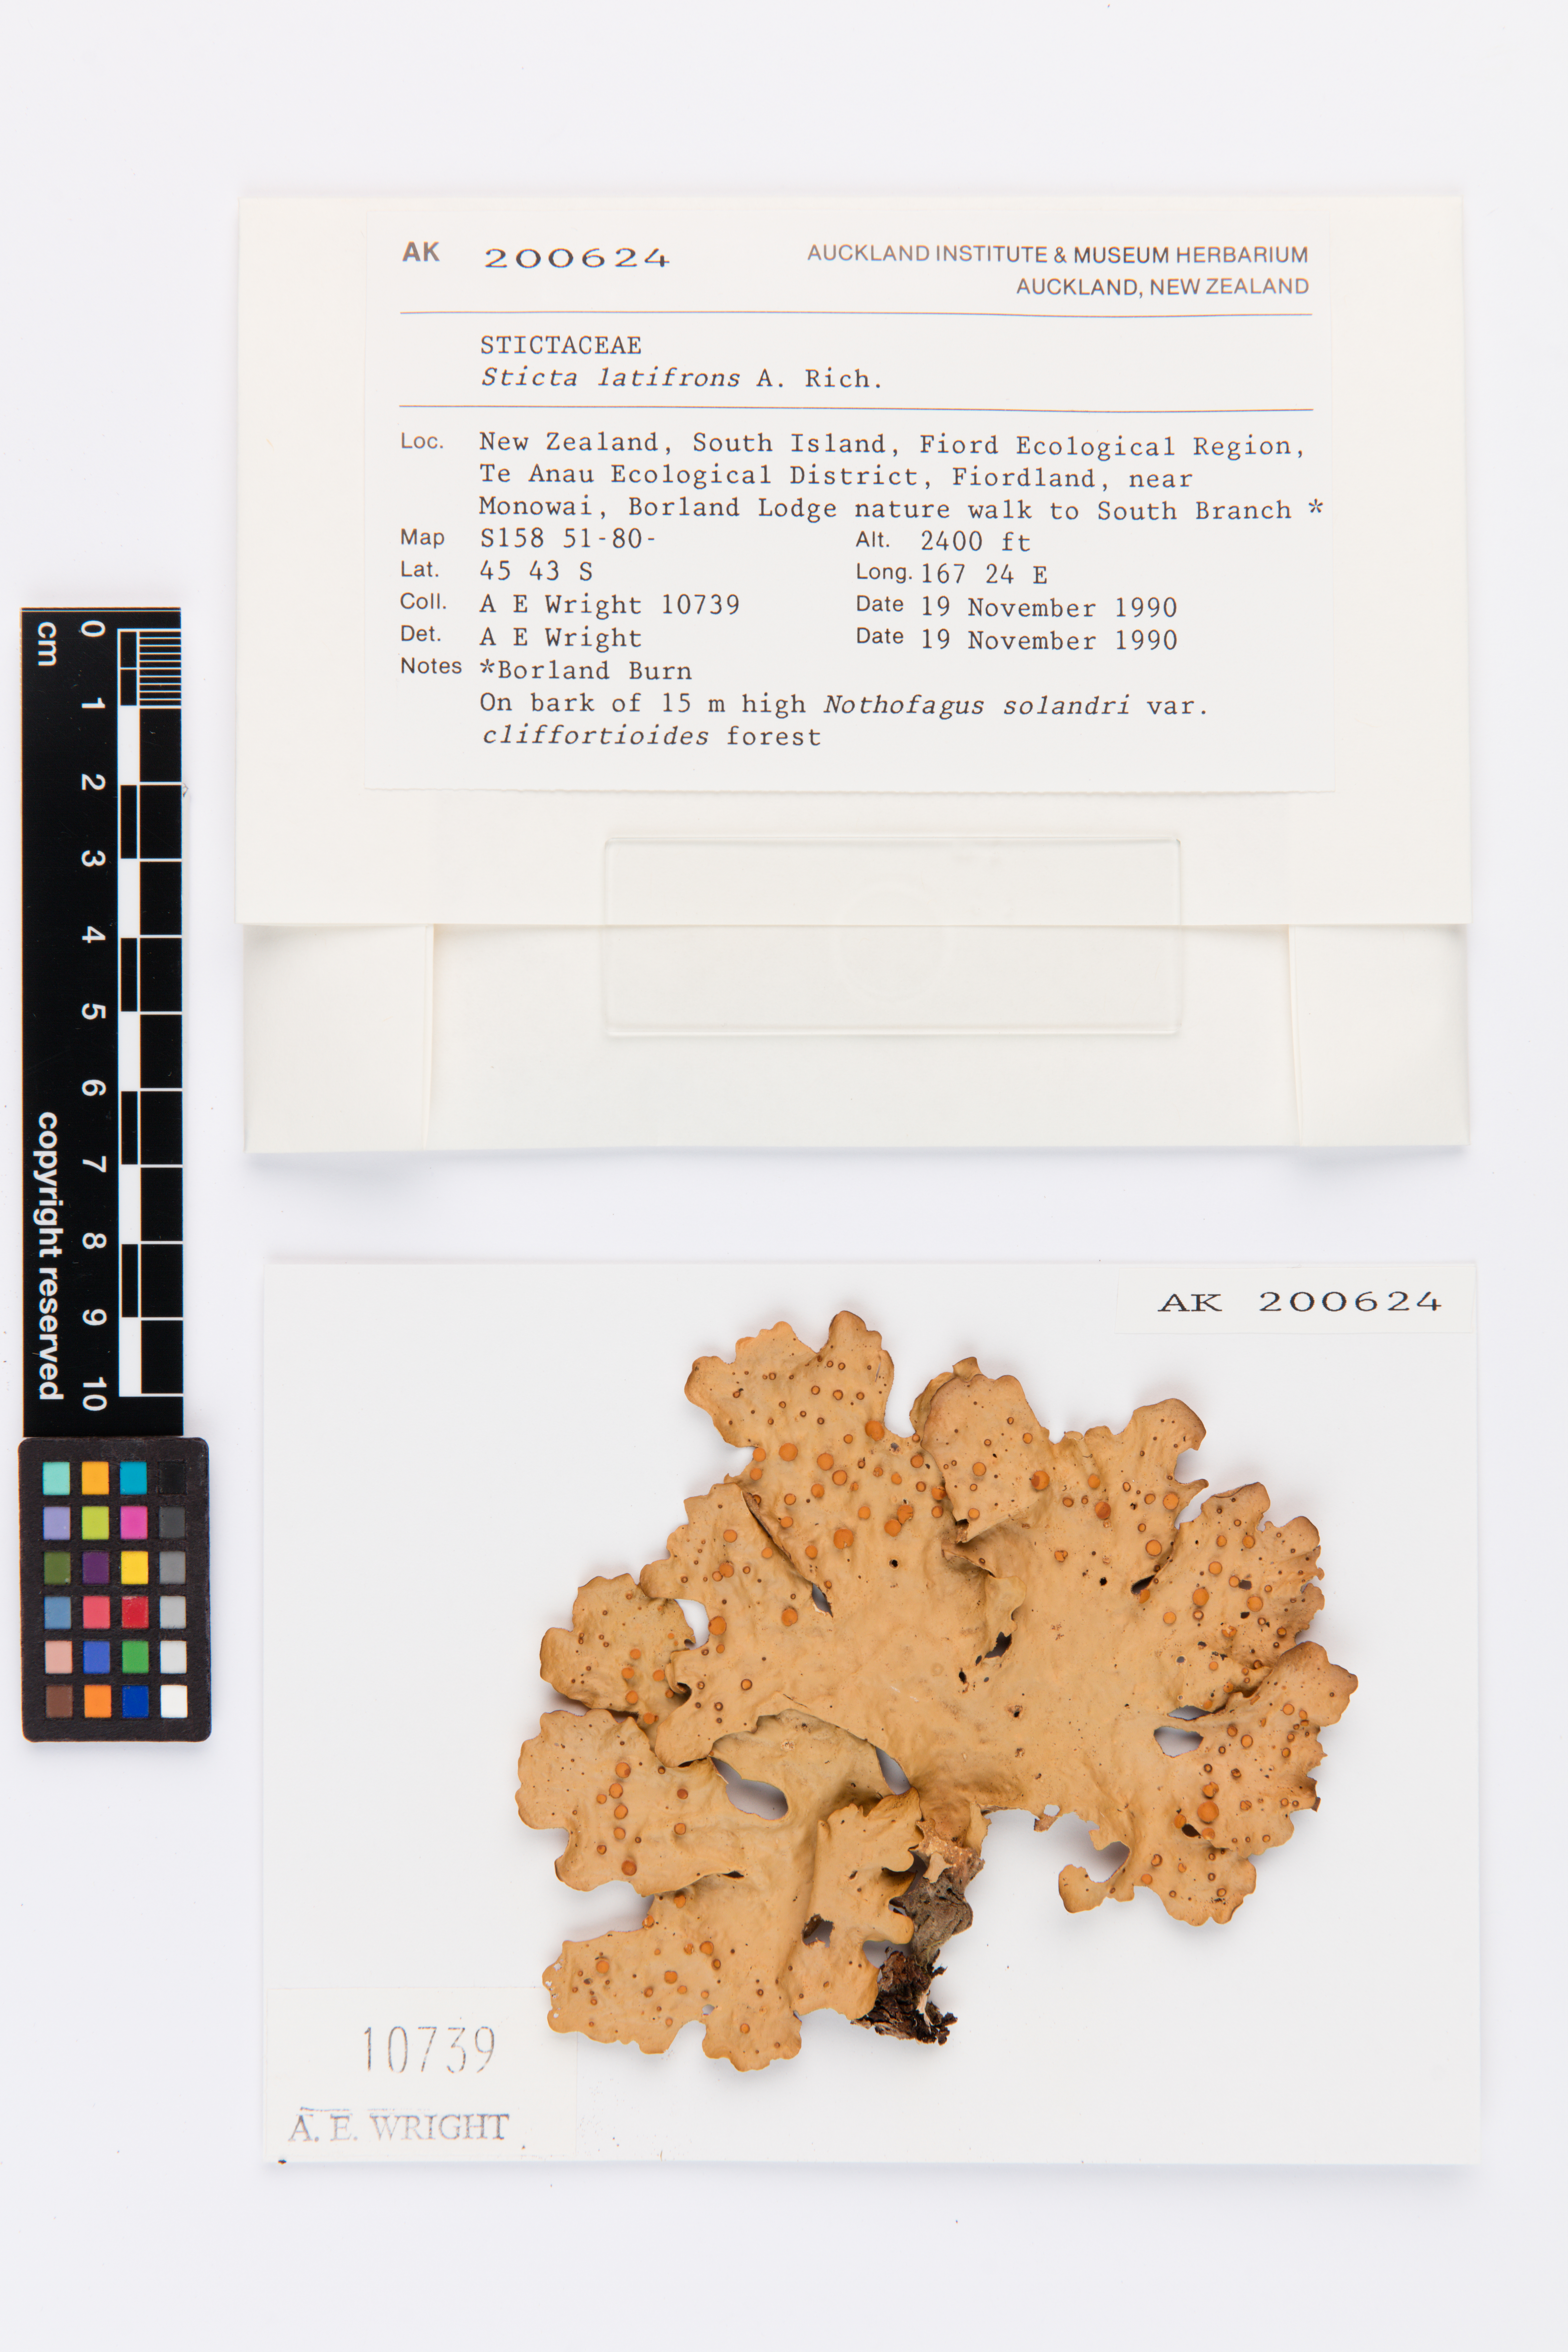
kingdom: Fungi
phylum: Ascomycota
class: Lecanoromycetes
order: Peltigerales
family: Lobariaceae
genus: Sticta
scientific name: Sticta latifrons
